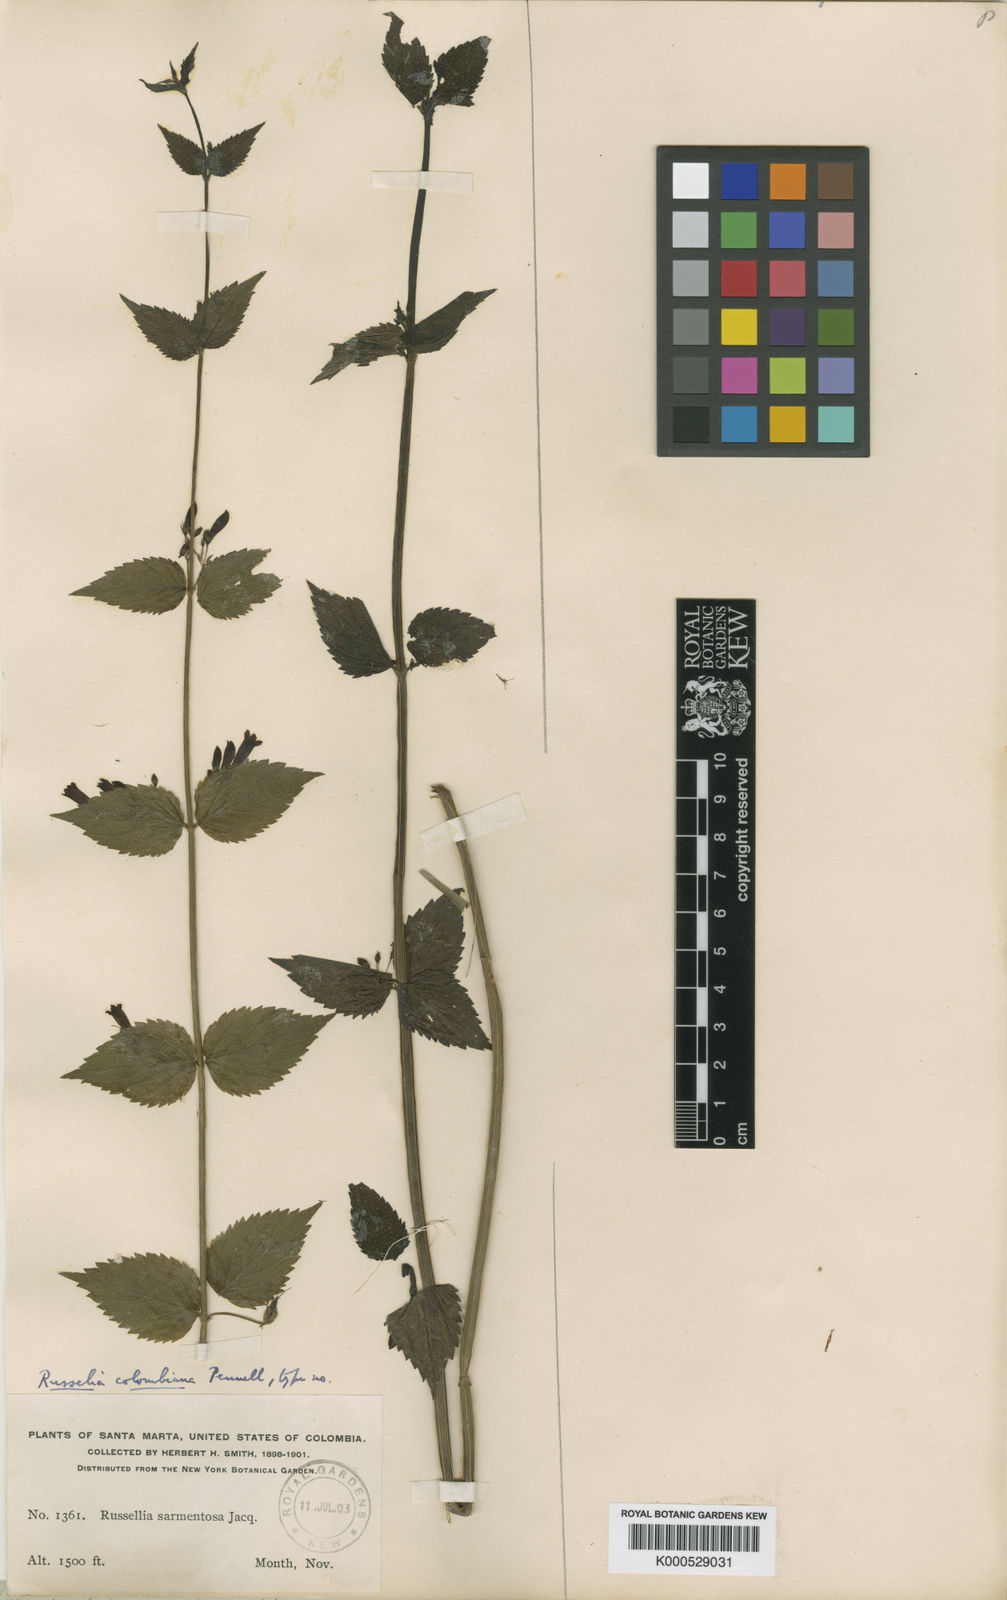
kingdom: Plantae
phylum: Tracheophyta
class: Magnoliopsida
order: Lamiales
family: Plantaginaceae
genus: Russelia
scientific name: Russelia sarmentosa
